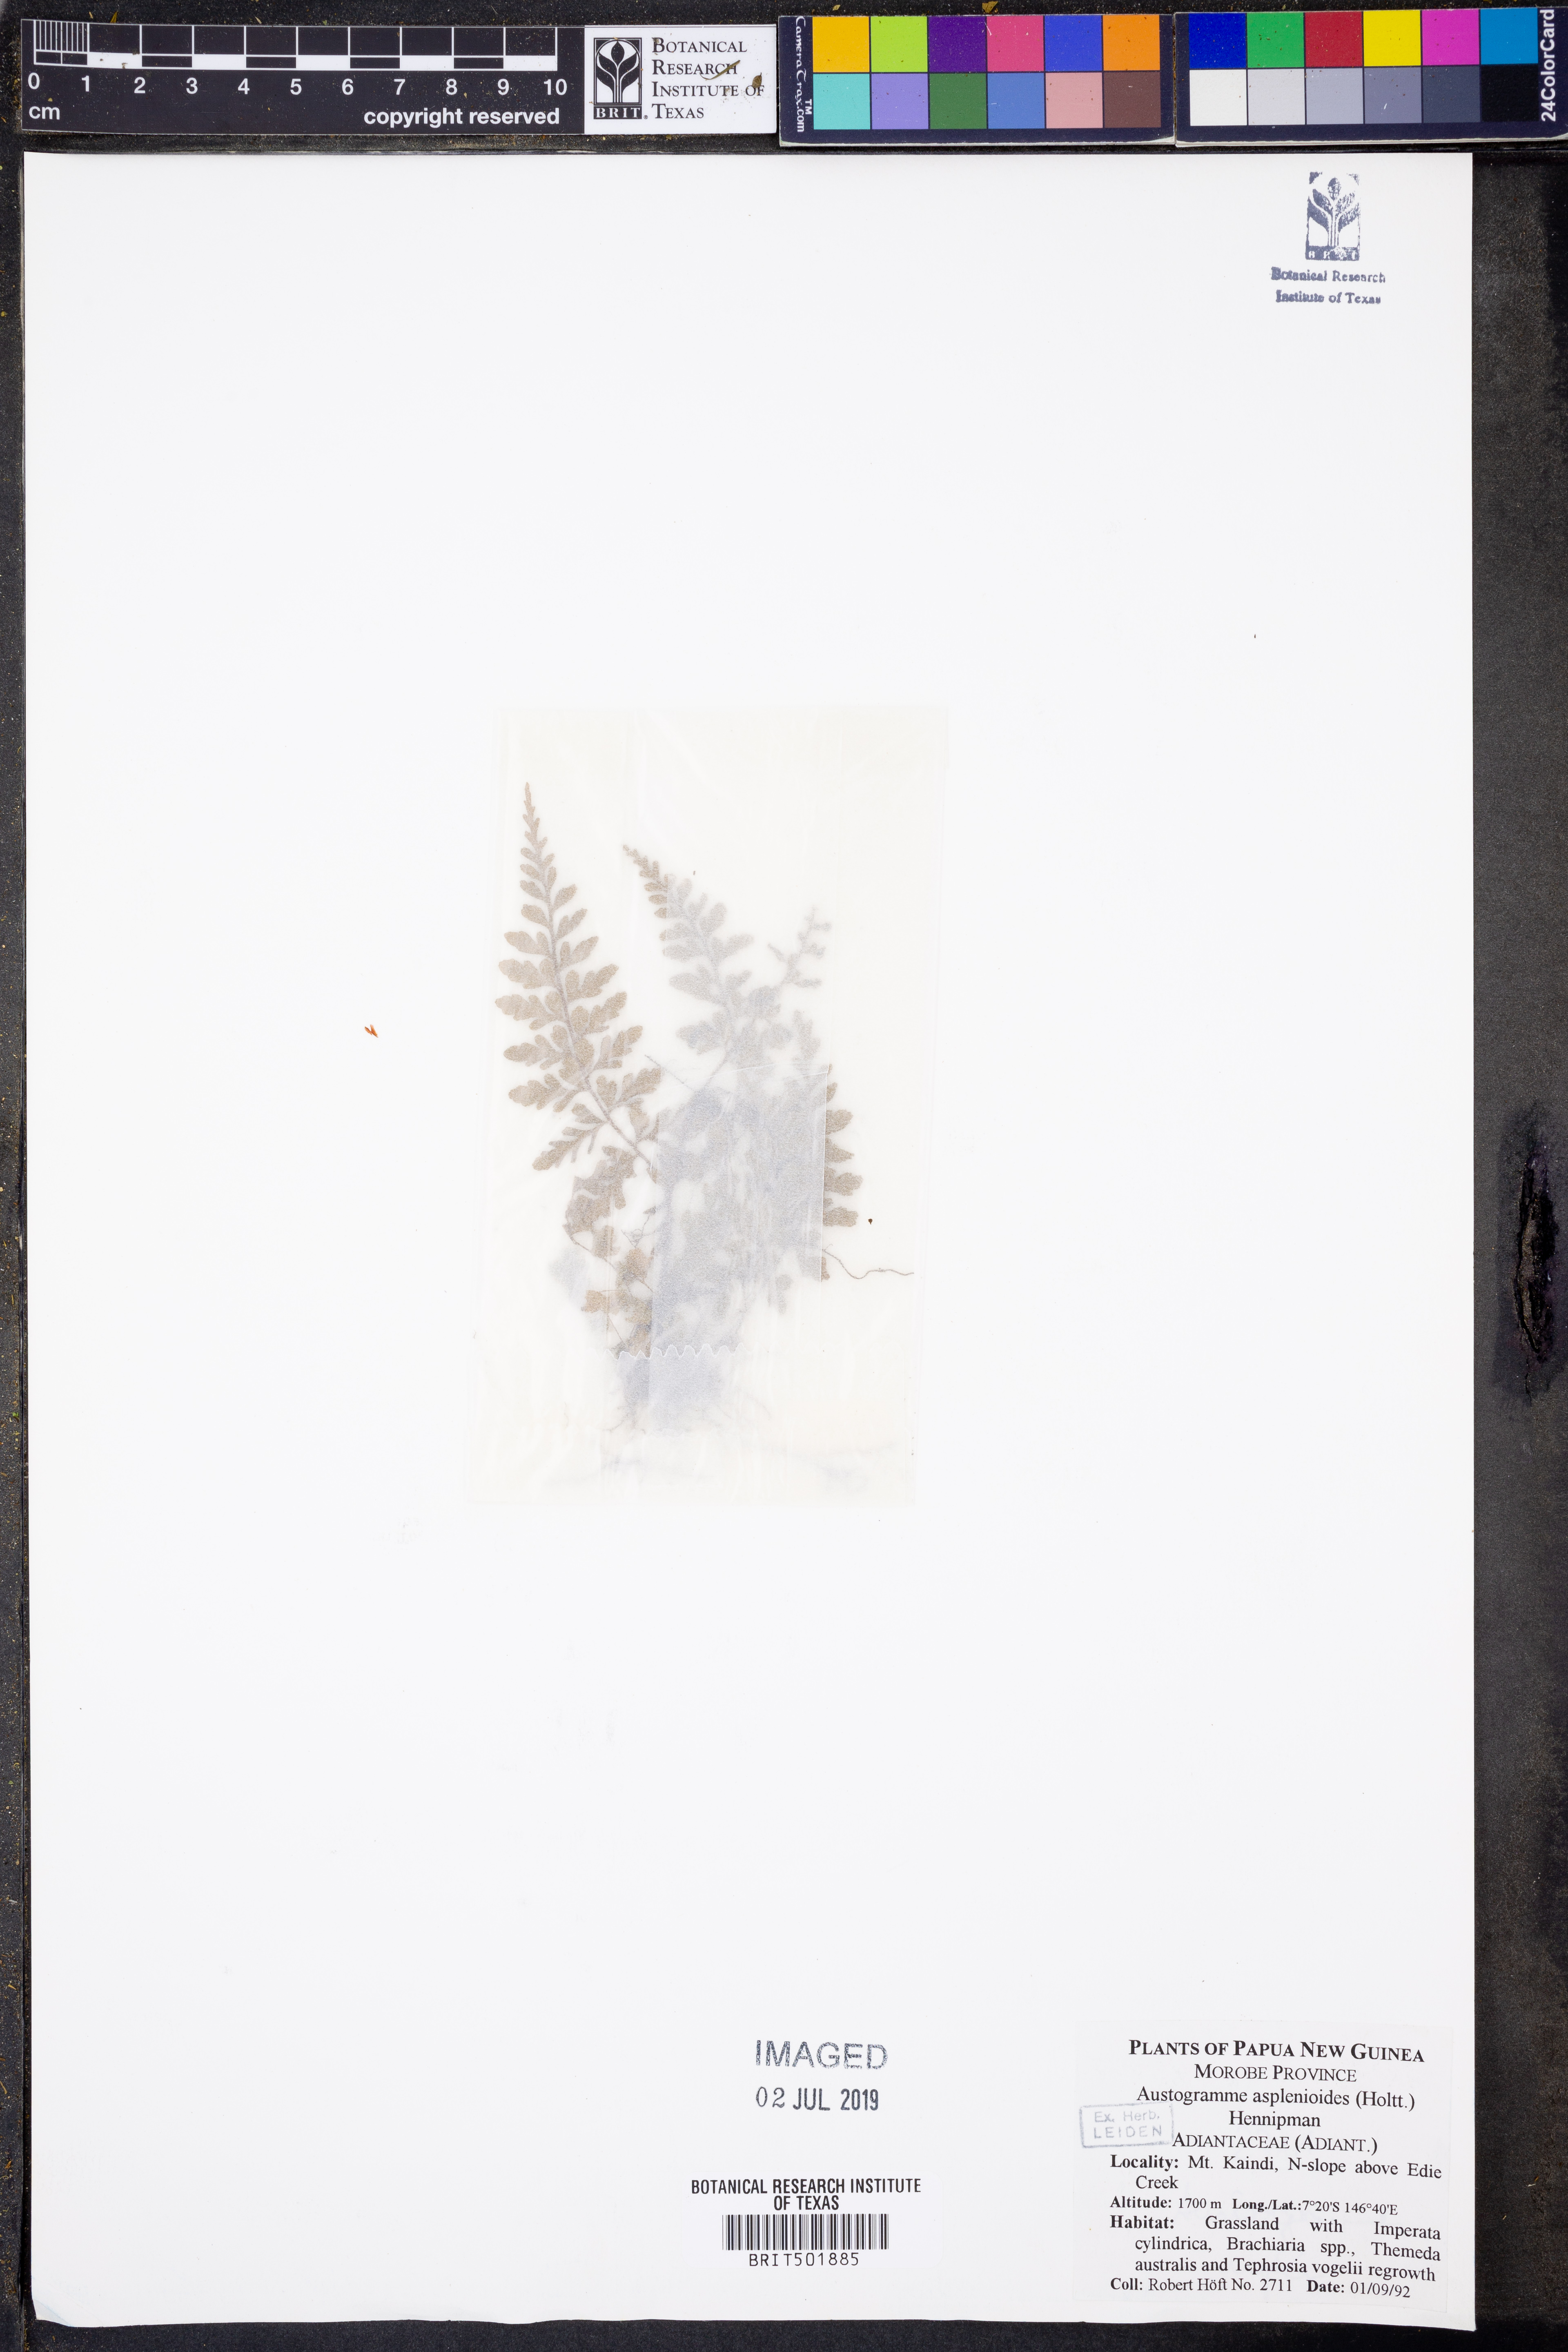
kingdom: Plantae
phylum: Tracheophyta
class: Polypodiopsida
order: Polypodiales
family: Pteridaceae
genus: Austrogramme
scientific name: Austrogramme asplenioides
